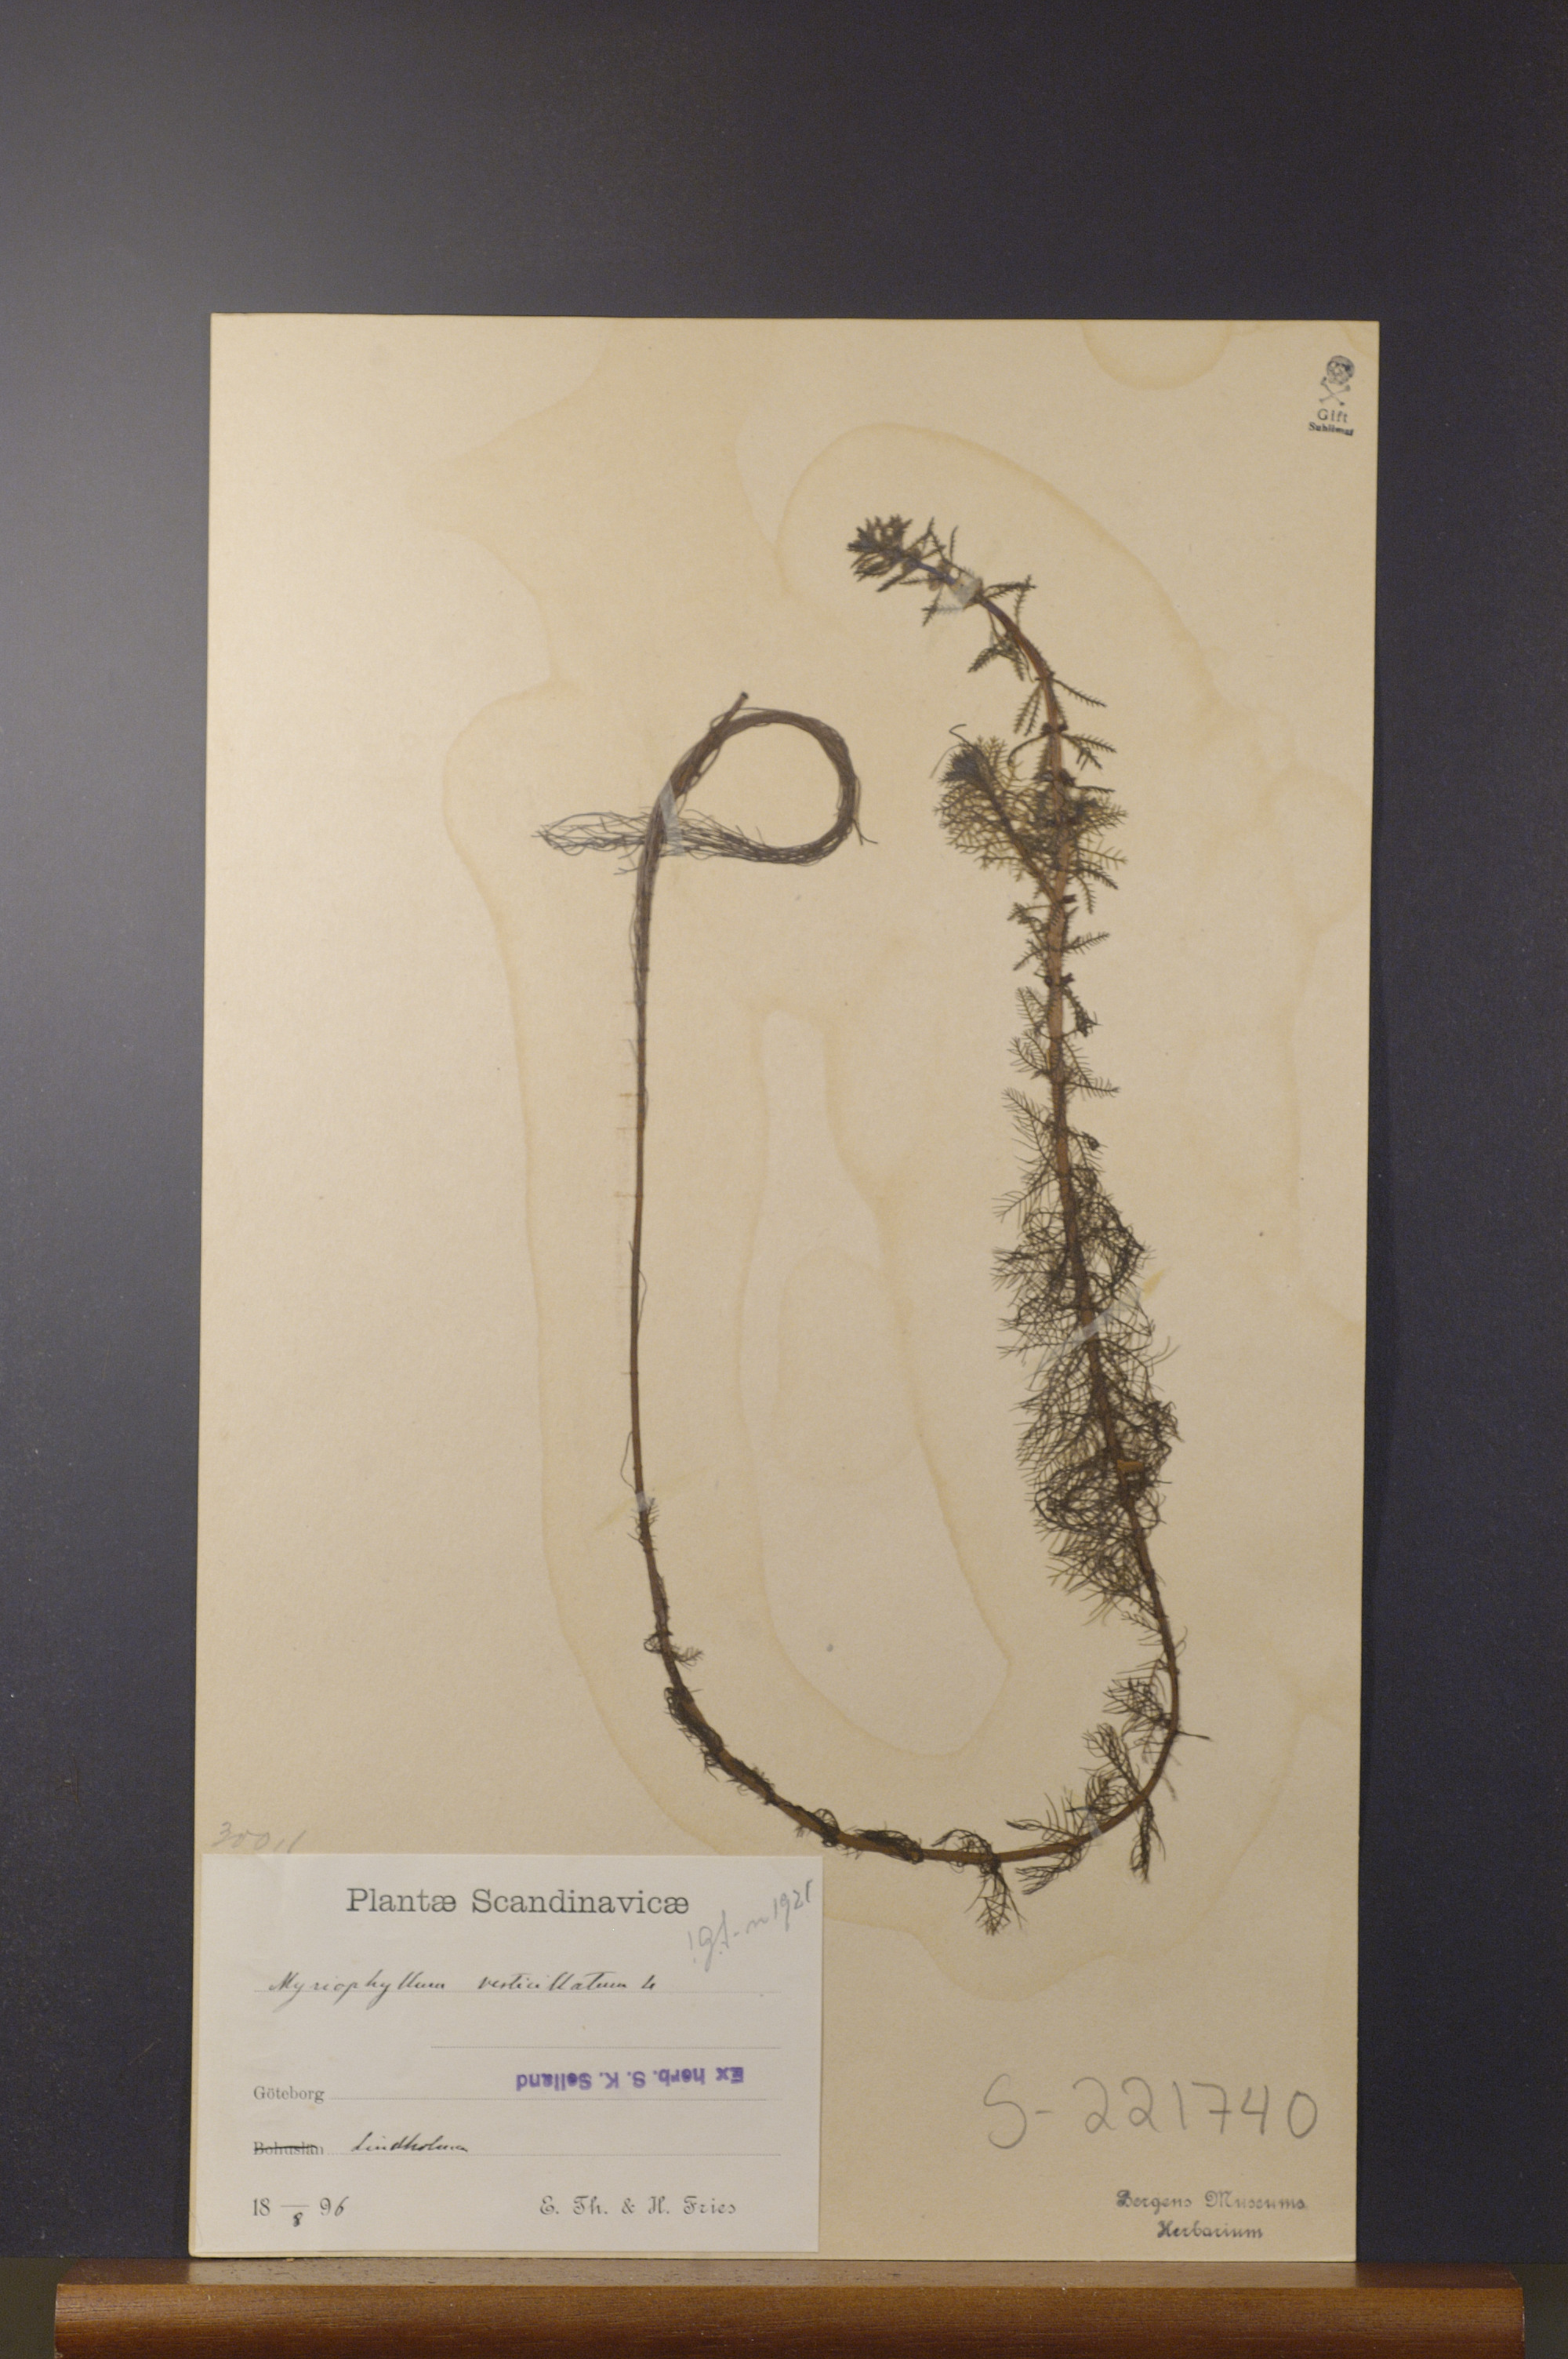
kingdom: Plantae
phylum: Tracheophyta
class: Magnoliopsida
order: Saxifragales
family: Haloragaceae
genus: Myriophyllum
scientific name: Myriophyllum verticillatum
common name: Whorled water-milfoil
